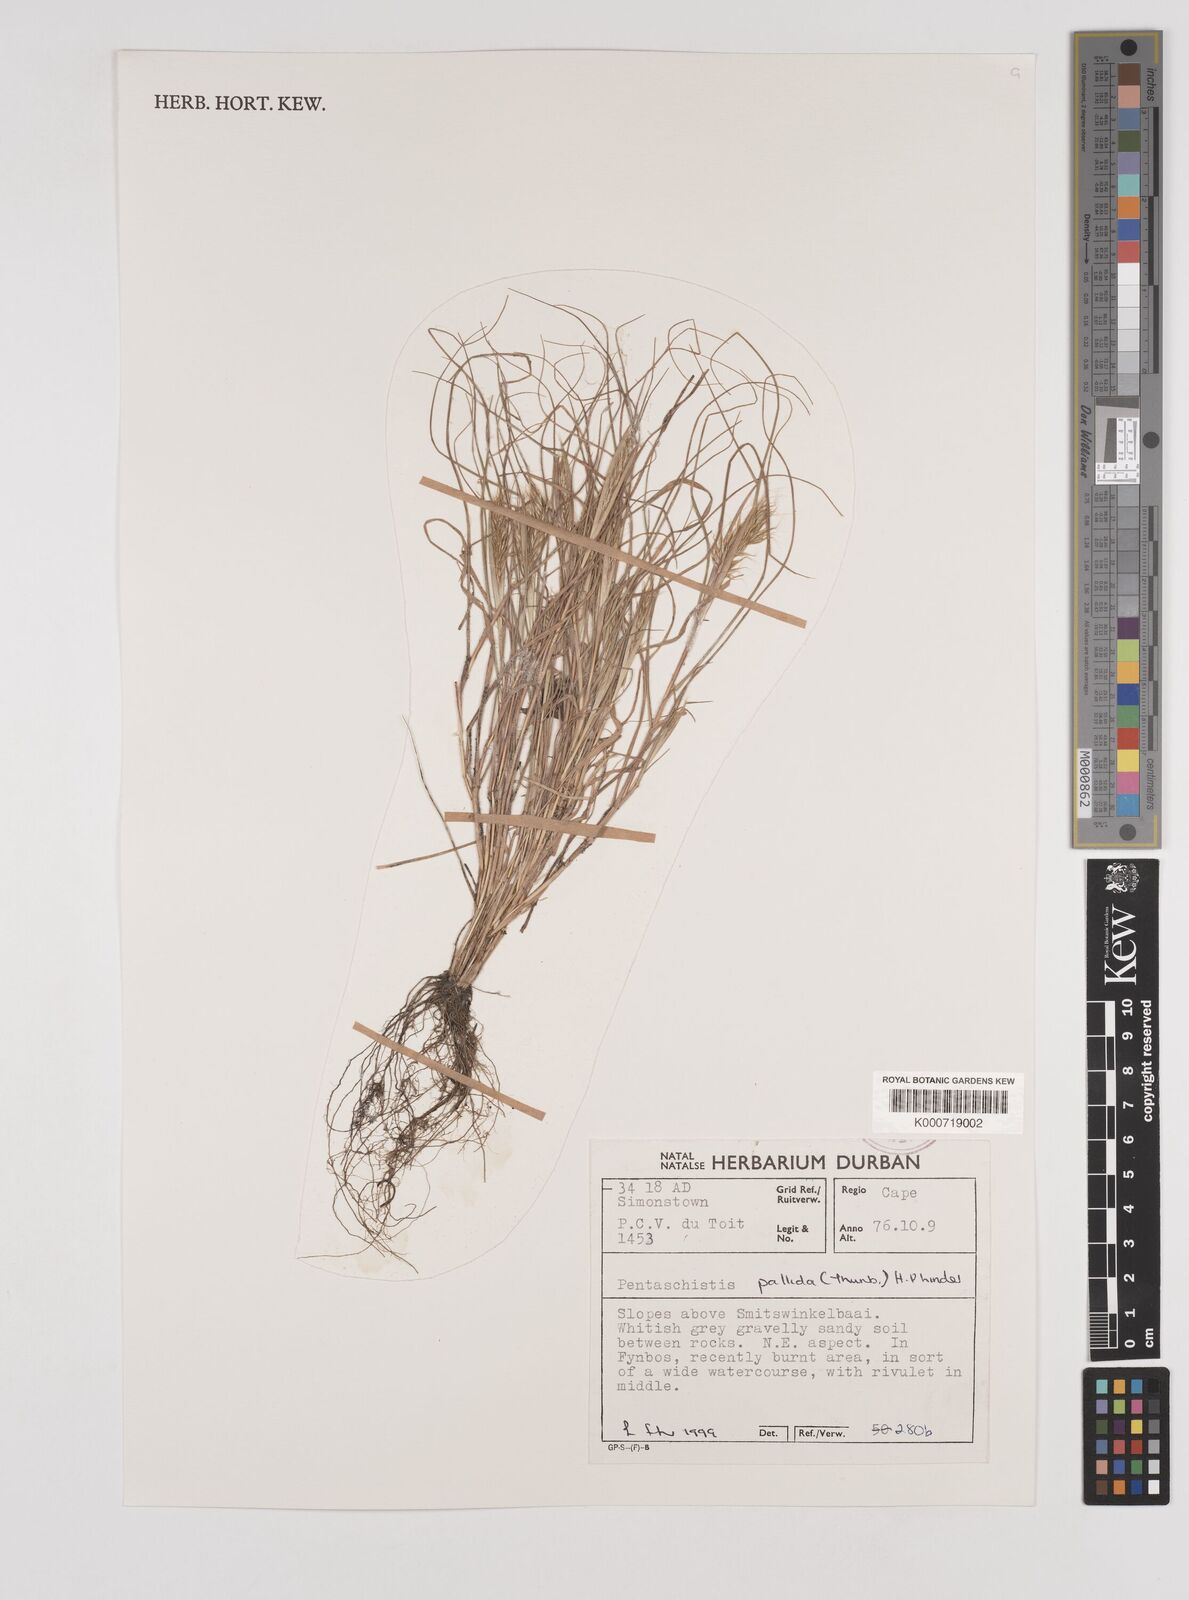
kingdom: Plantae
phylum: Tracheophyta
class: Liliopsida
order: Poales
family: Poaceae
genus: Pentameris
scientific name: Pentameris pallida
